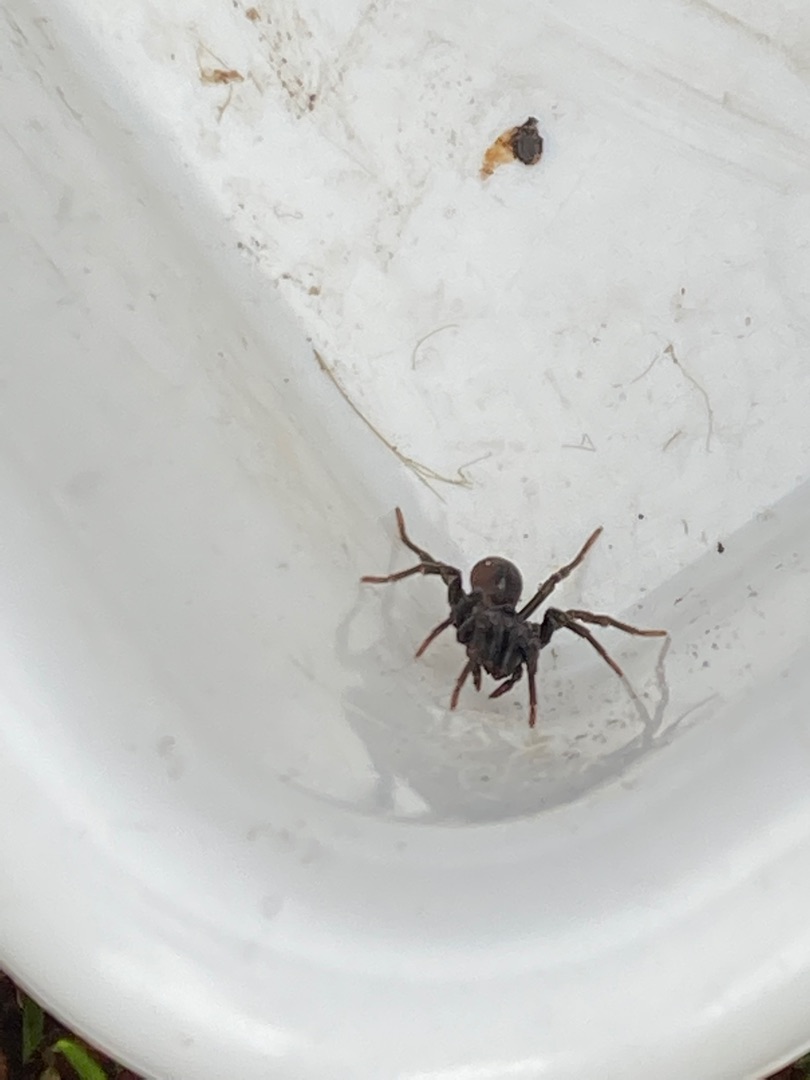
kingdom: Animalia
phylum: Arthropoda
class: Arachnida
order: Araneae
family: Atypidae
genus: Atypus
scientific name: Atypus affinis
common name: Nordlig fugleedderkop
